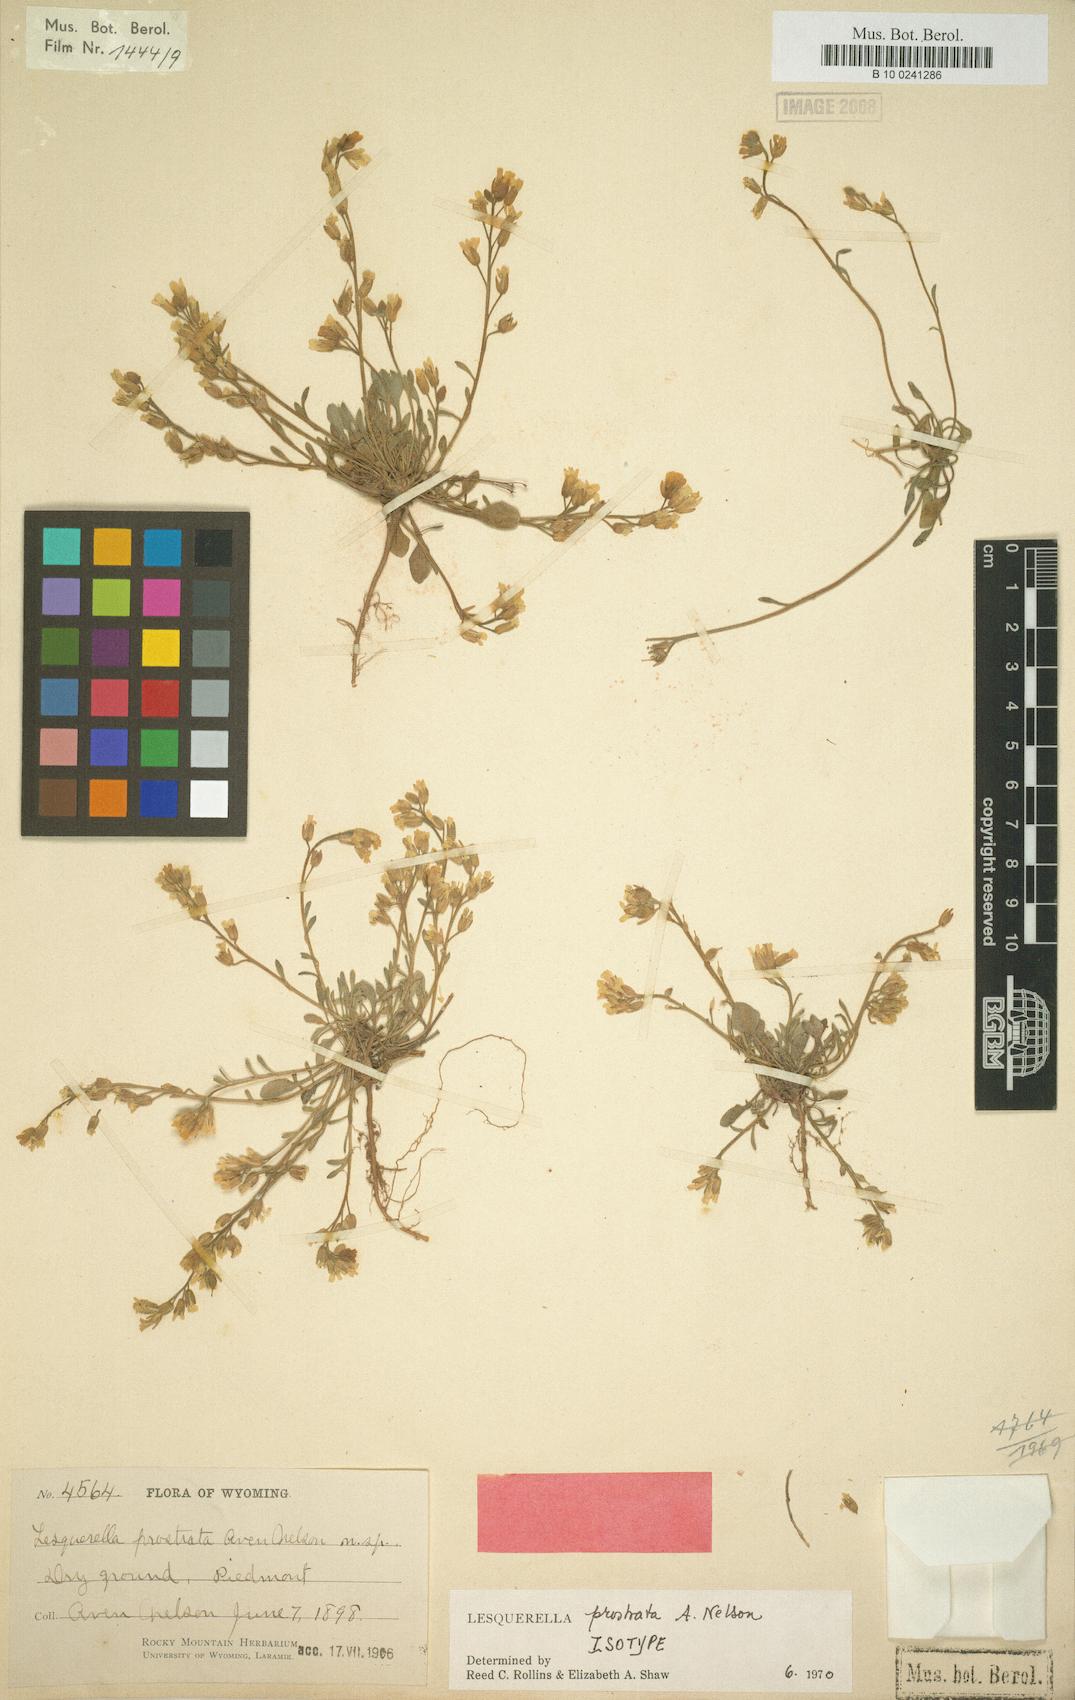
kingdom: Plantae
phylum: Tracheophyta
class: Magnoliopsida
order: Brassicales
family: Brassicaceae
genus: Physaria
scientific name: Physaria prostrata
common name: Low bladderpod
